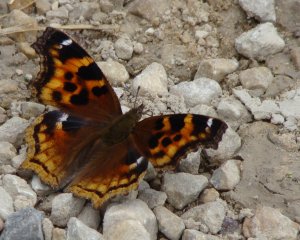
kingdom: Animalia
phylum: Arthropoda
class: Insecta
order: Lepidoptera
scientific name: Lepidoptera
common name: Butterflies
